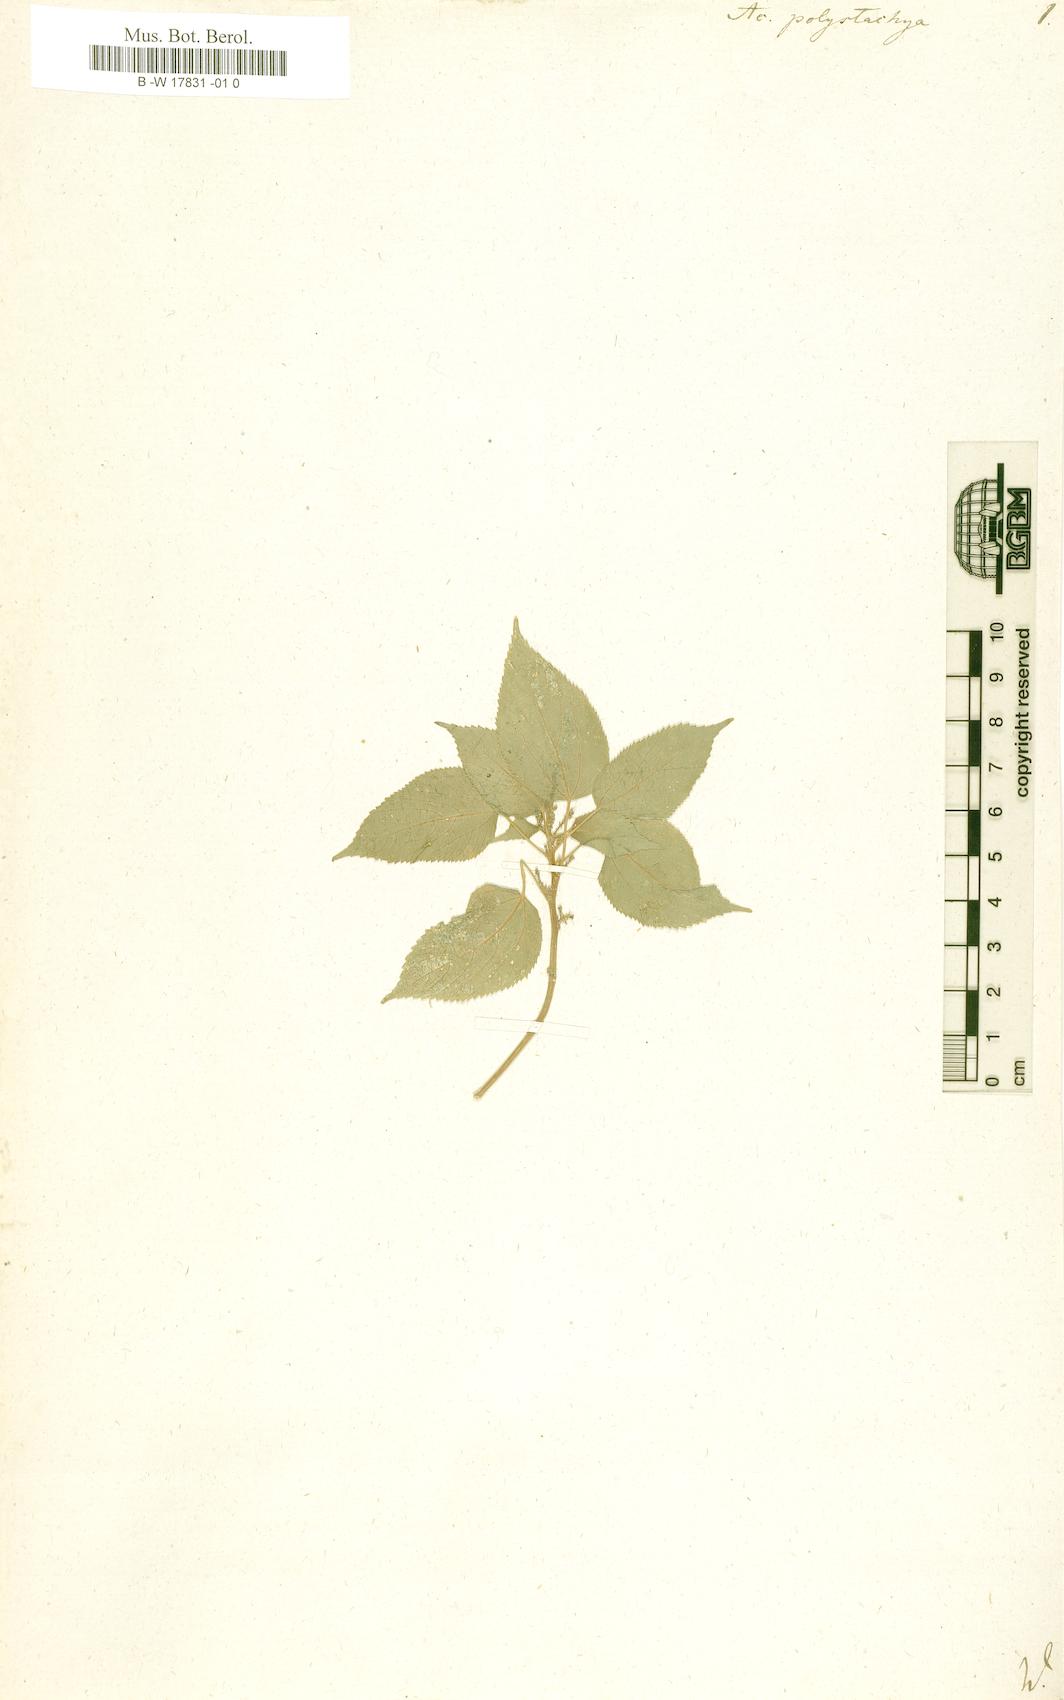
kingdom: Plantae
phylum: Tracheophyta
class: Magnoliopsida
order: Malpighiales
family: Euphorbiaceae
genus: Acalypha
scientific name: Acalypha polystachya
